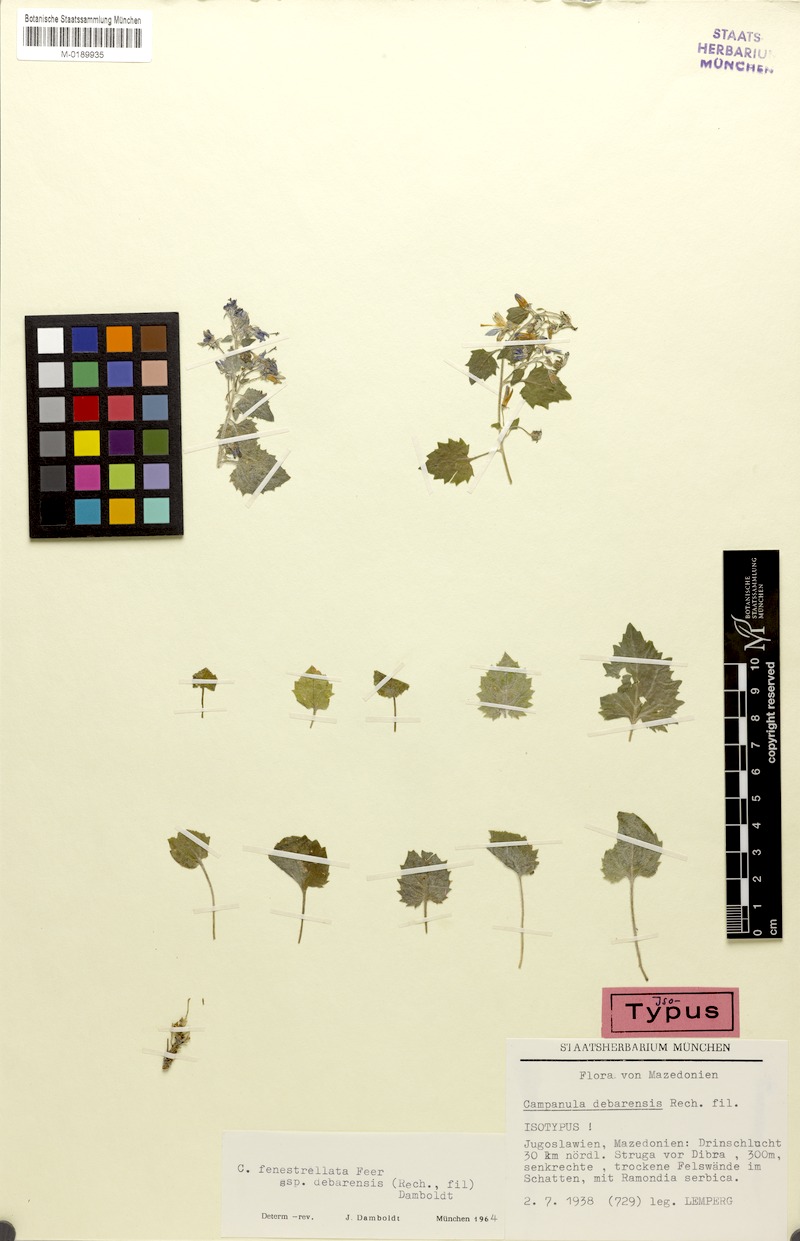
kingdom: Plantae
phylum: Tracheophyta
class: Magnoliopsida
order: Asterales
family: Campanulaceae
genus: Campanula
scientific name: Campanula fenestrellata
